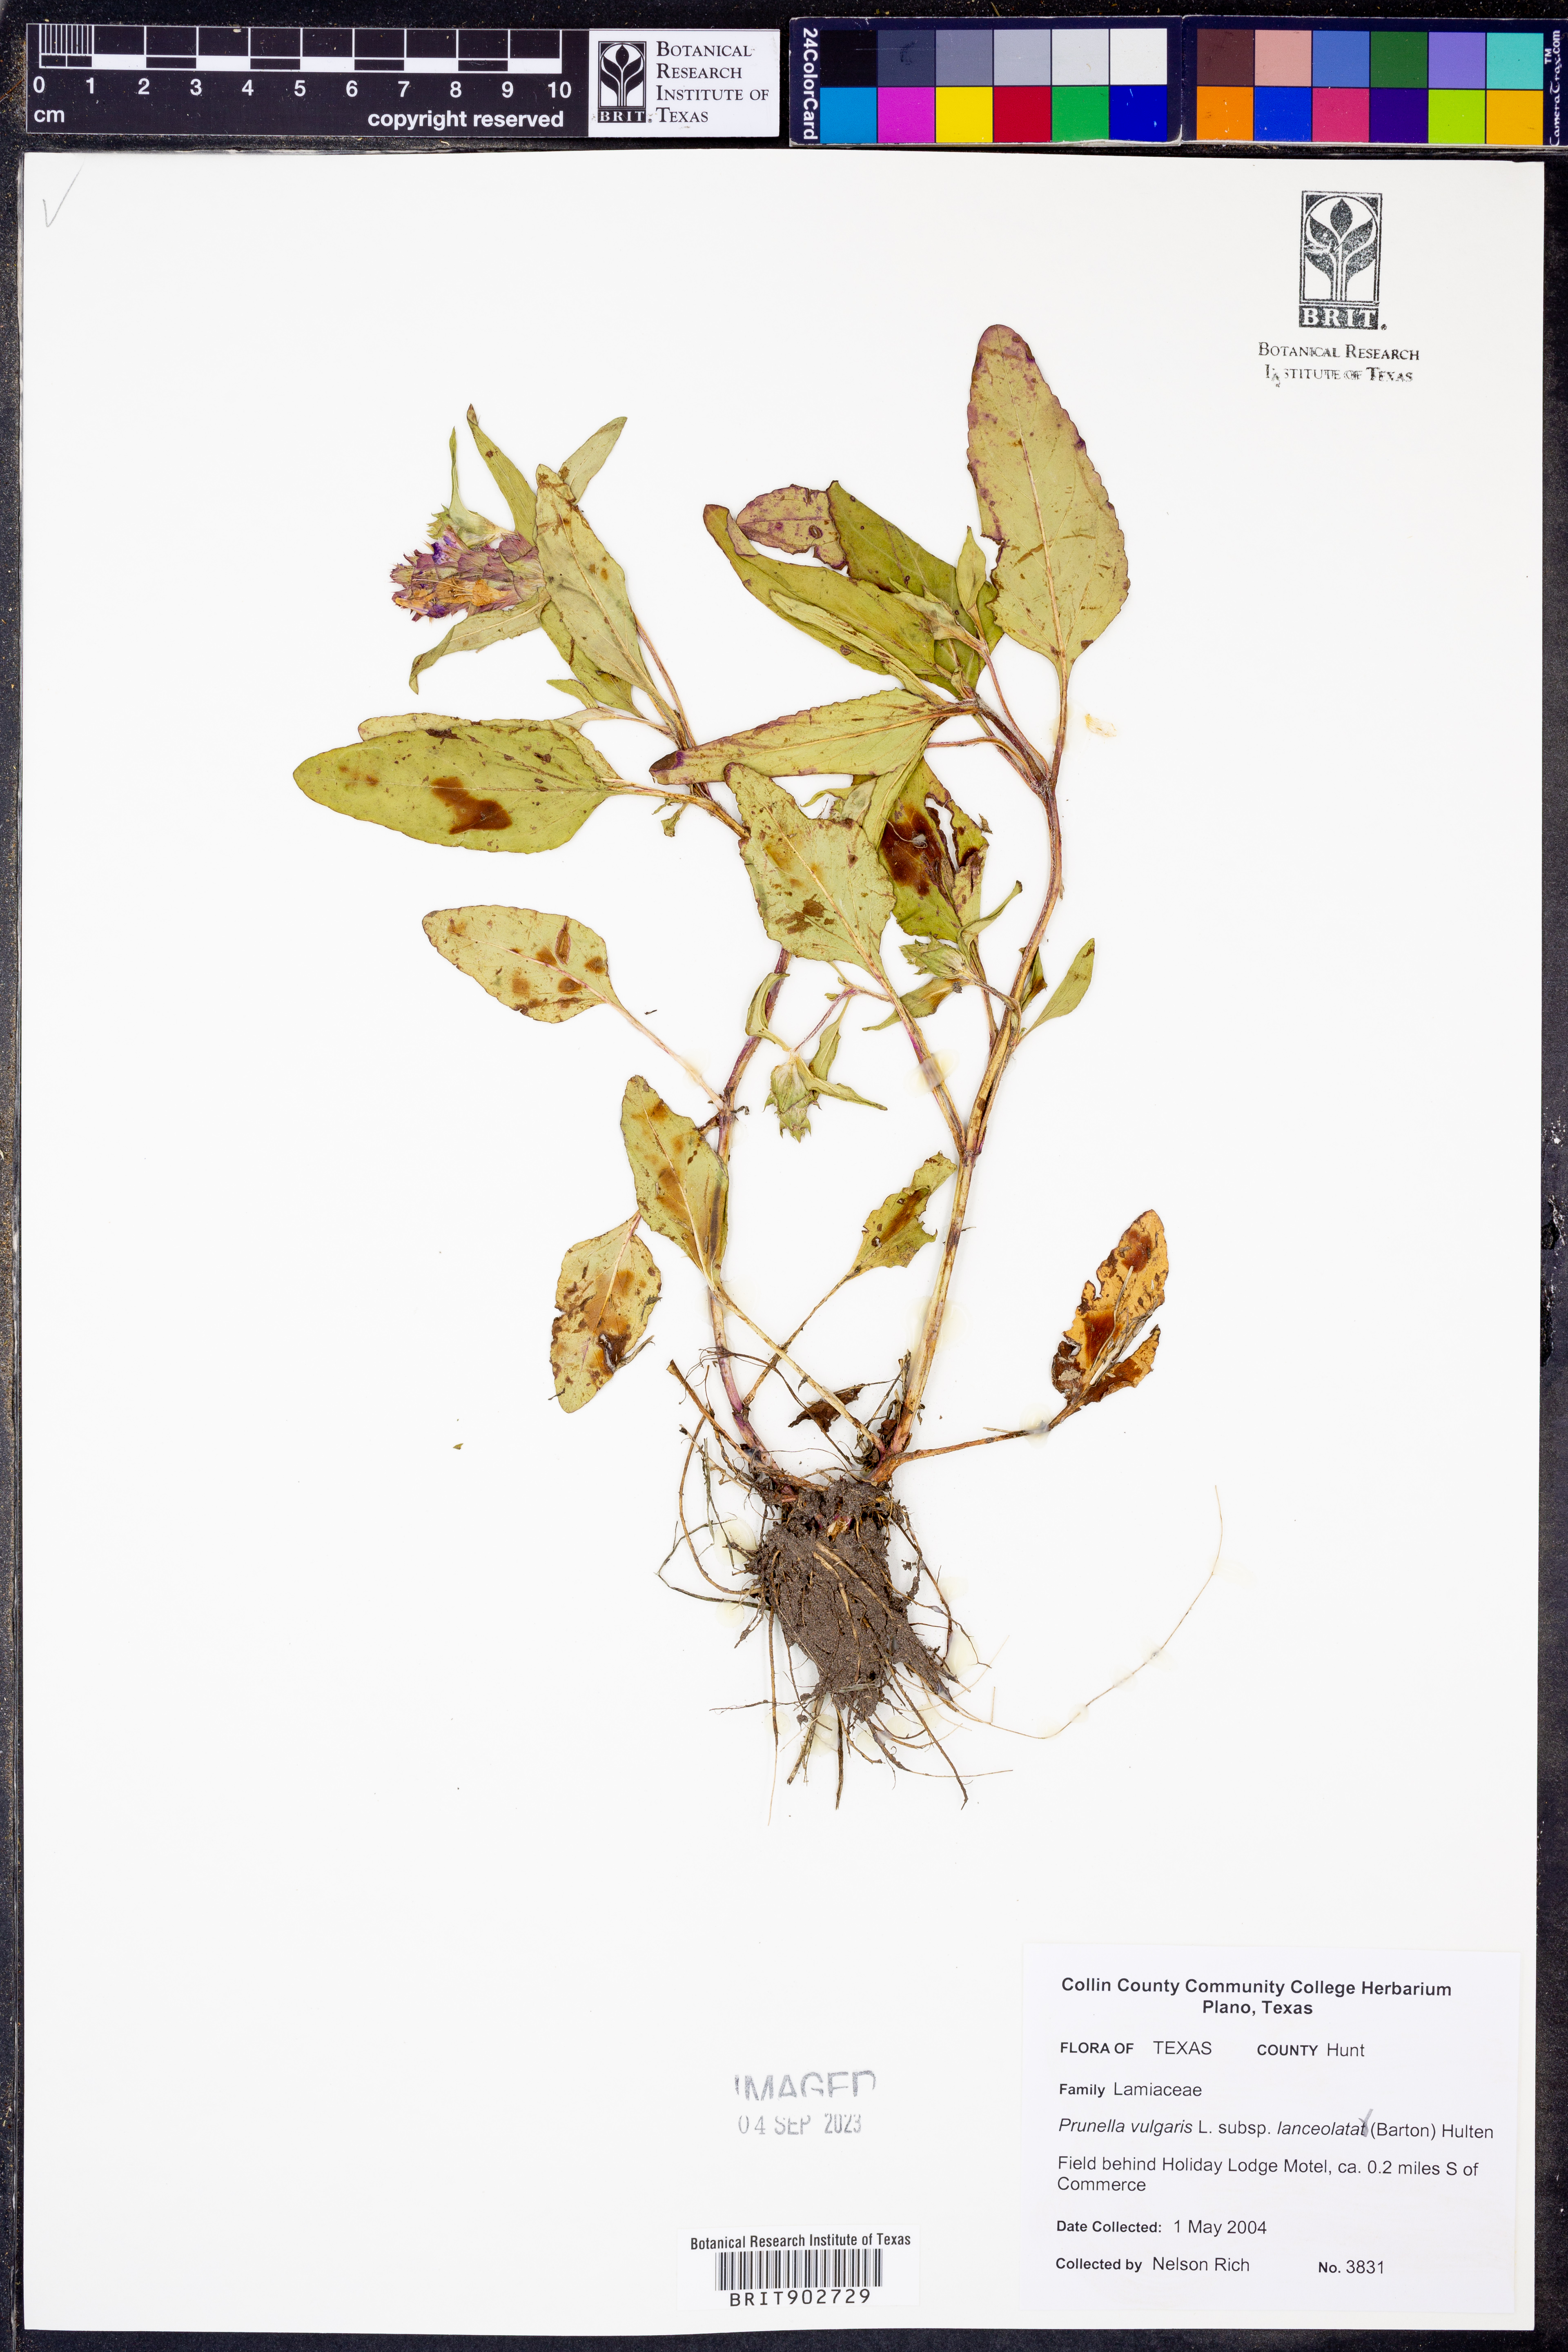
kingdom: Plantae
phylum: Tracheophyta
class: Magnoliopsida
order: Lamiales
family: Lamiaceae
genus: Prunella
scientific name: Prunella vulgaris
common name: Heal-all
